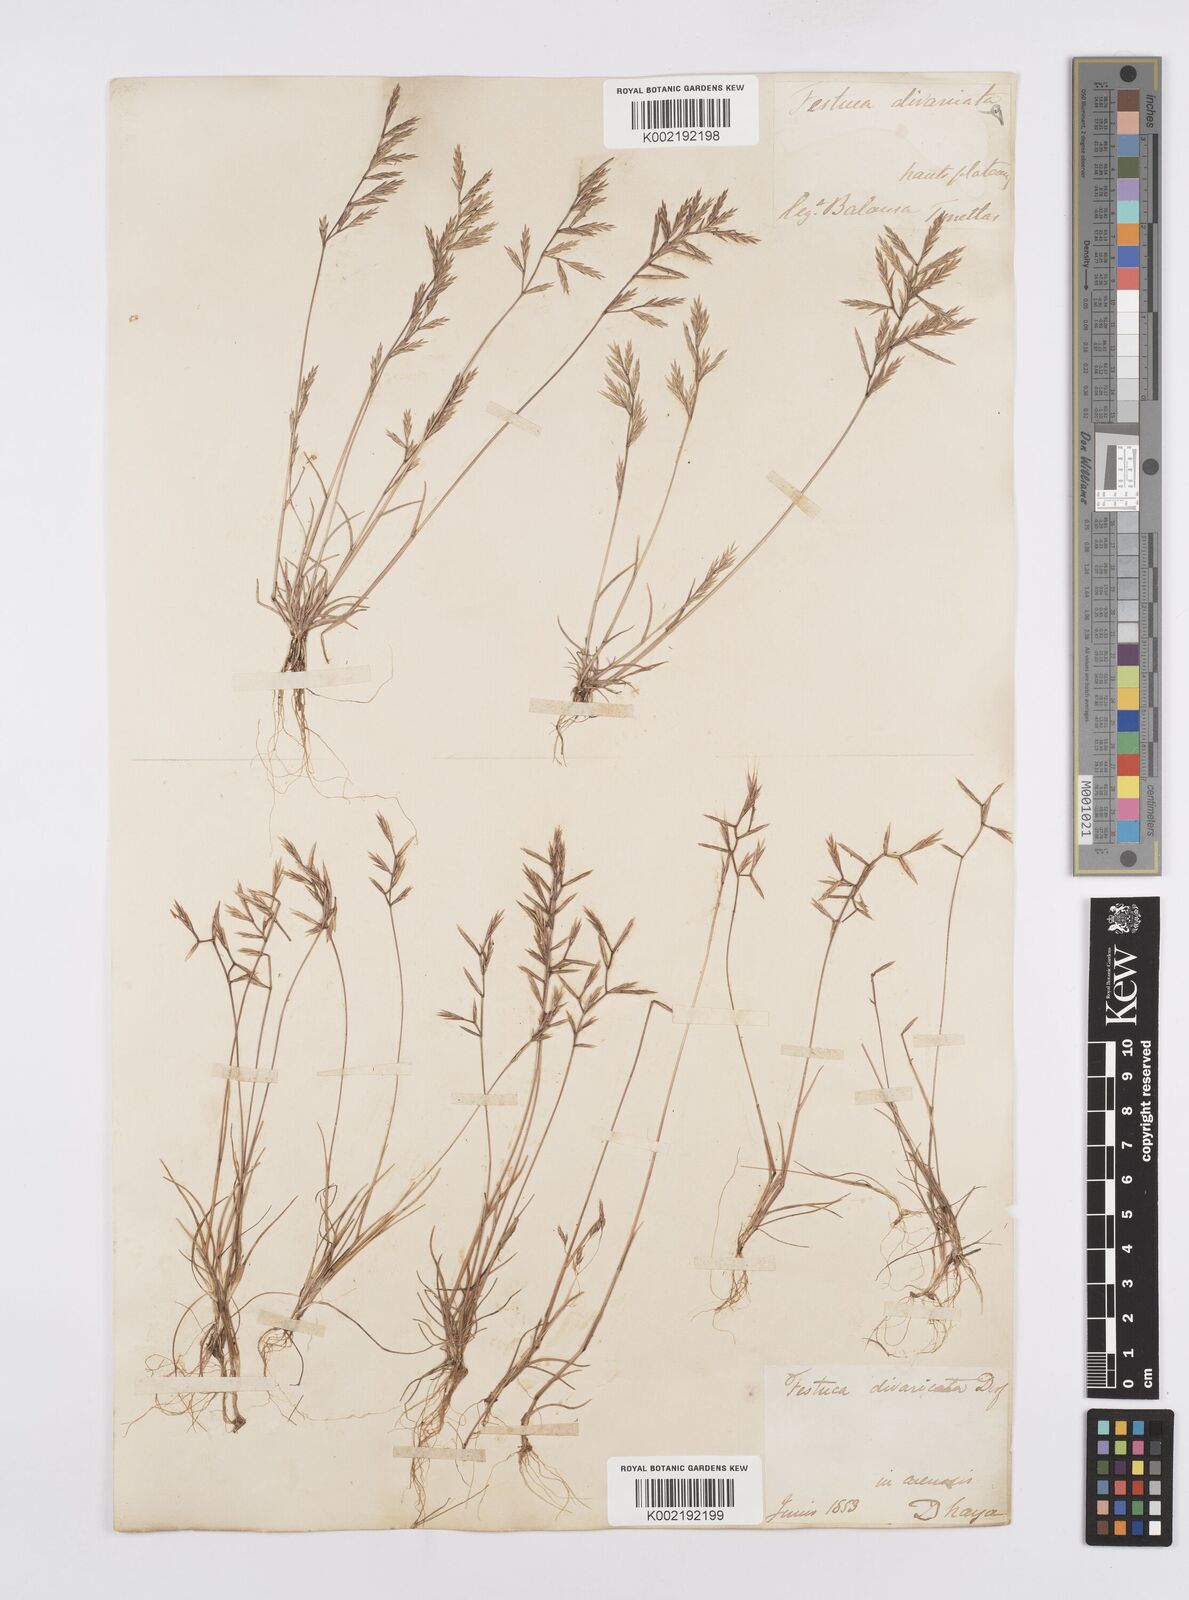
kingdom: Plantae
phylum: Tracheophyta
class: Liliopsida
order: Poales
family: Poaceae
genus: Cutandia
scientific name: Cutandia divaricata
